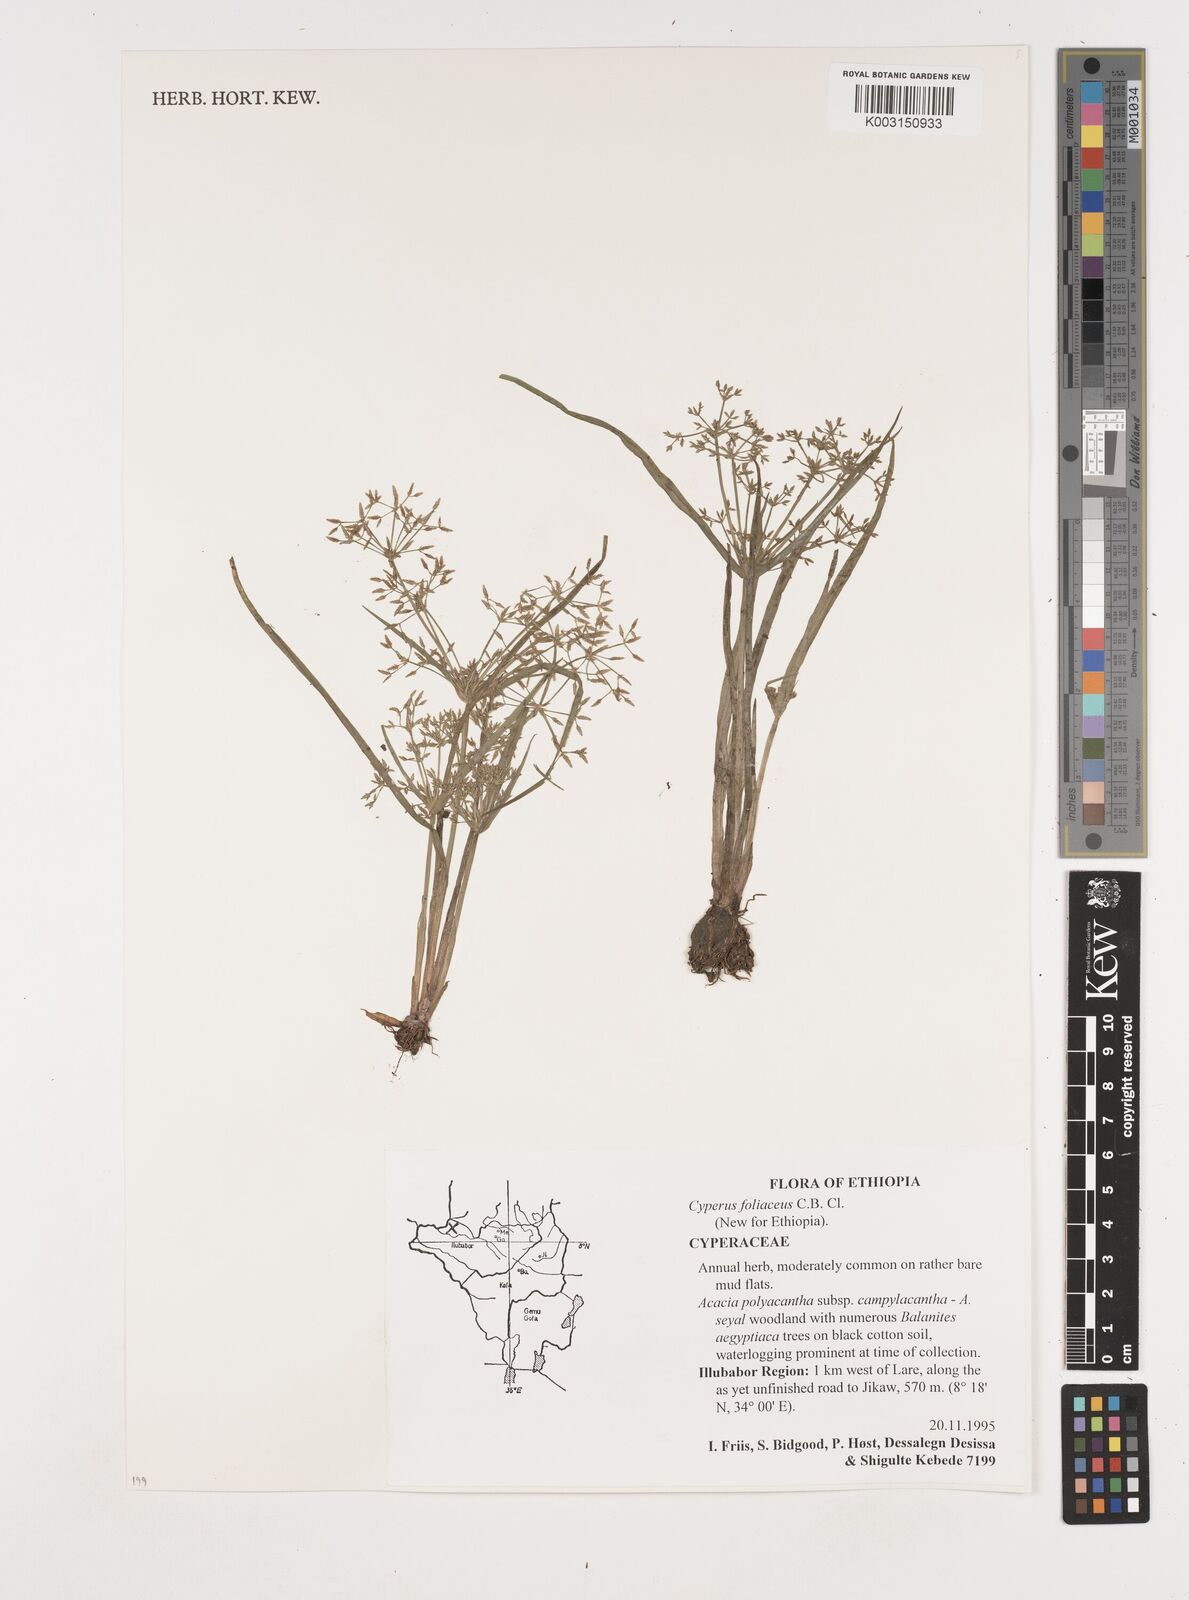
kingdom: Plantae
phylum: Tracheophyta
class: Liliopsida
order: Poales
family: Cyperaceae
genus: Cyperus
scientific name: Cyperus foliaceus
